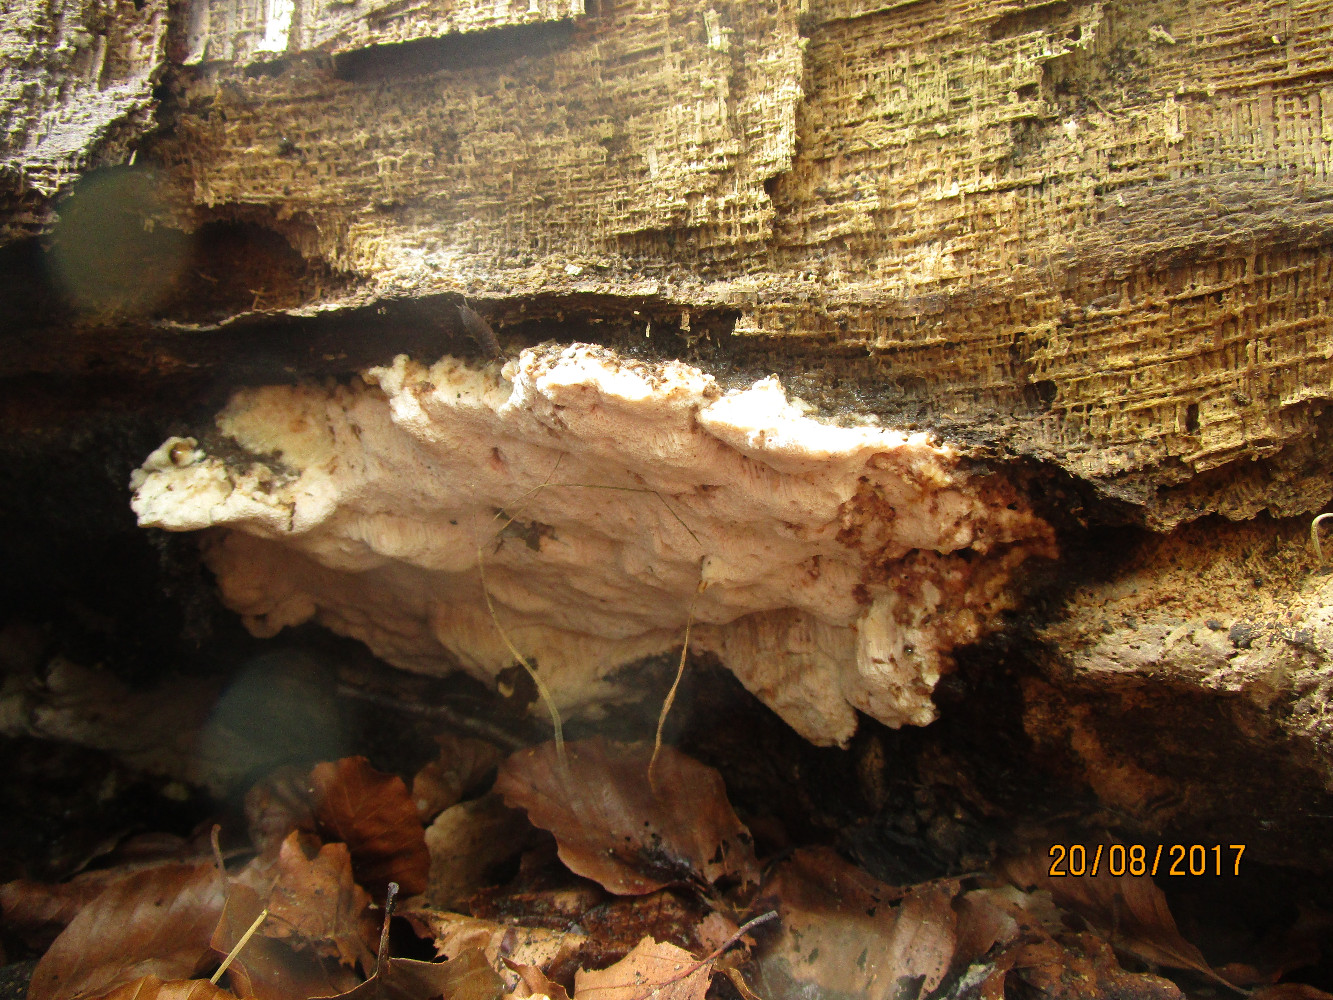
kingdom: Fungi
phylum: Basidiomycota
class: Agaricomycetes
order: Polyporales
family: Meruliaceae
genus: Pappia
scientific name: Pappia fissilis
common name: sej fedtporesvamp
